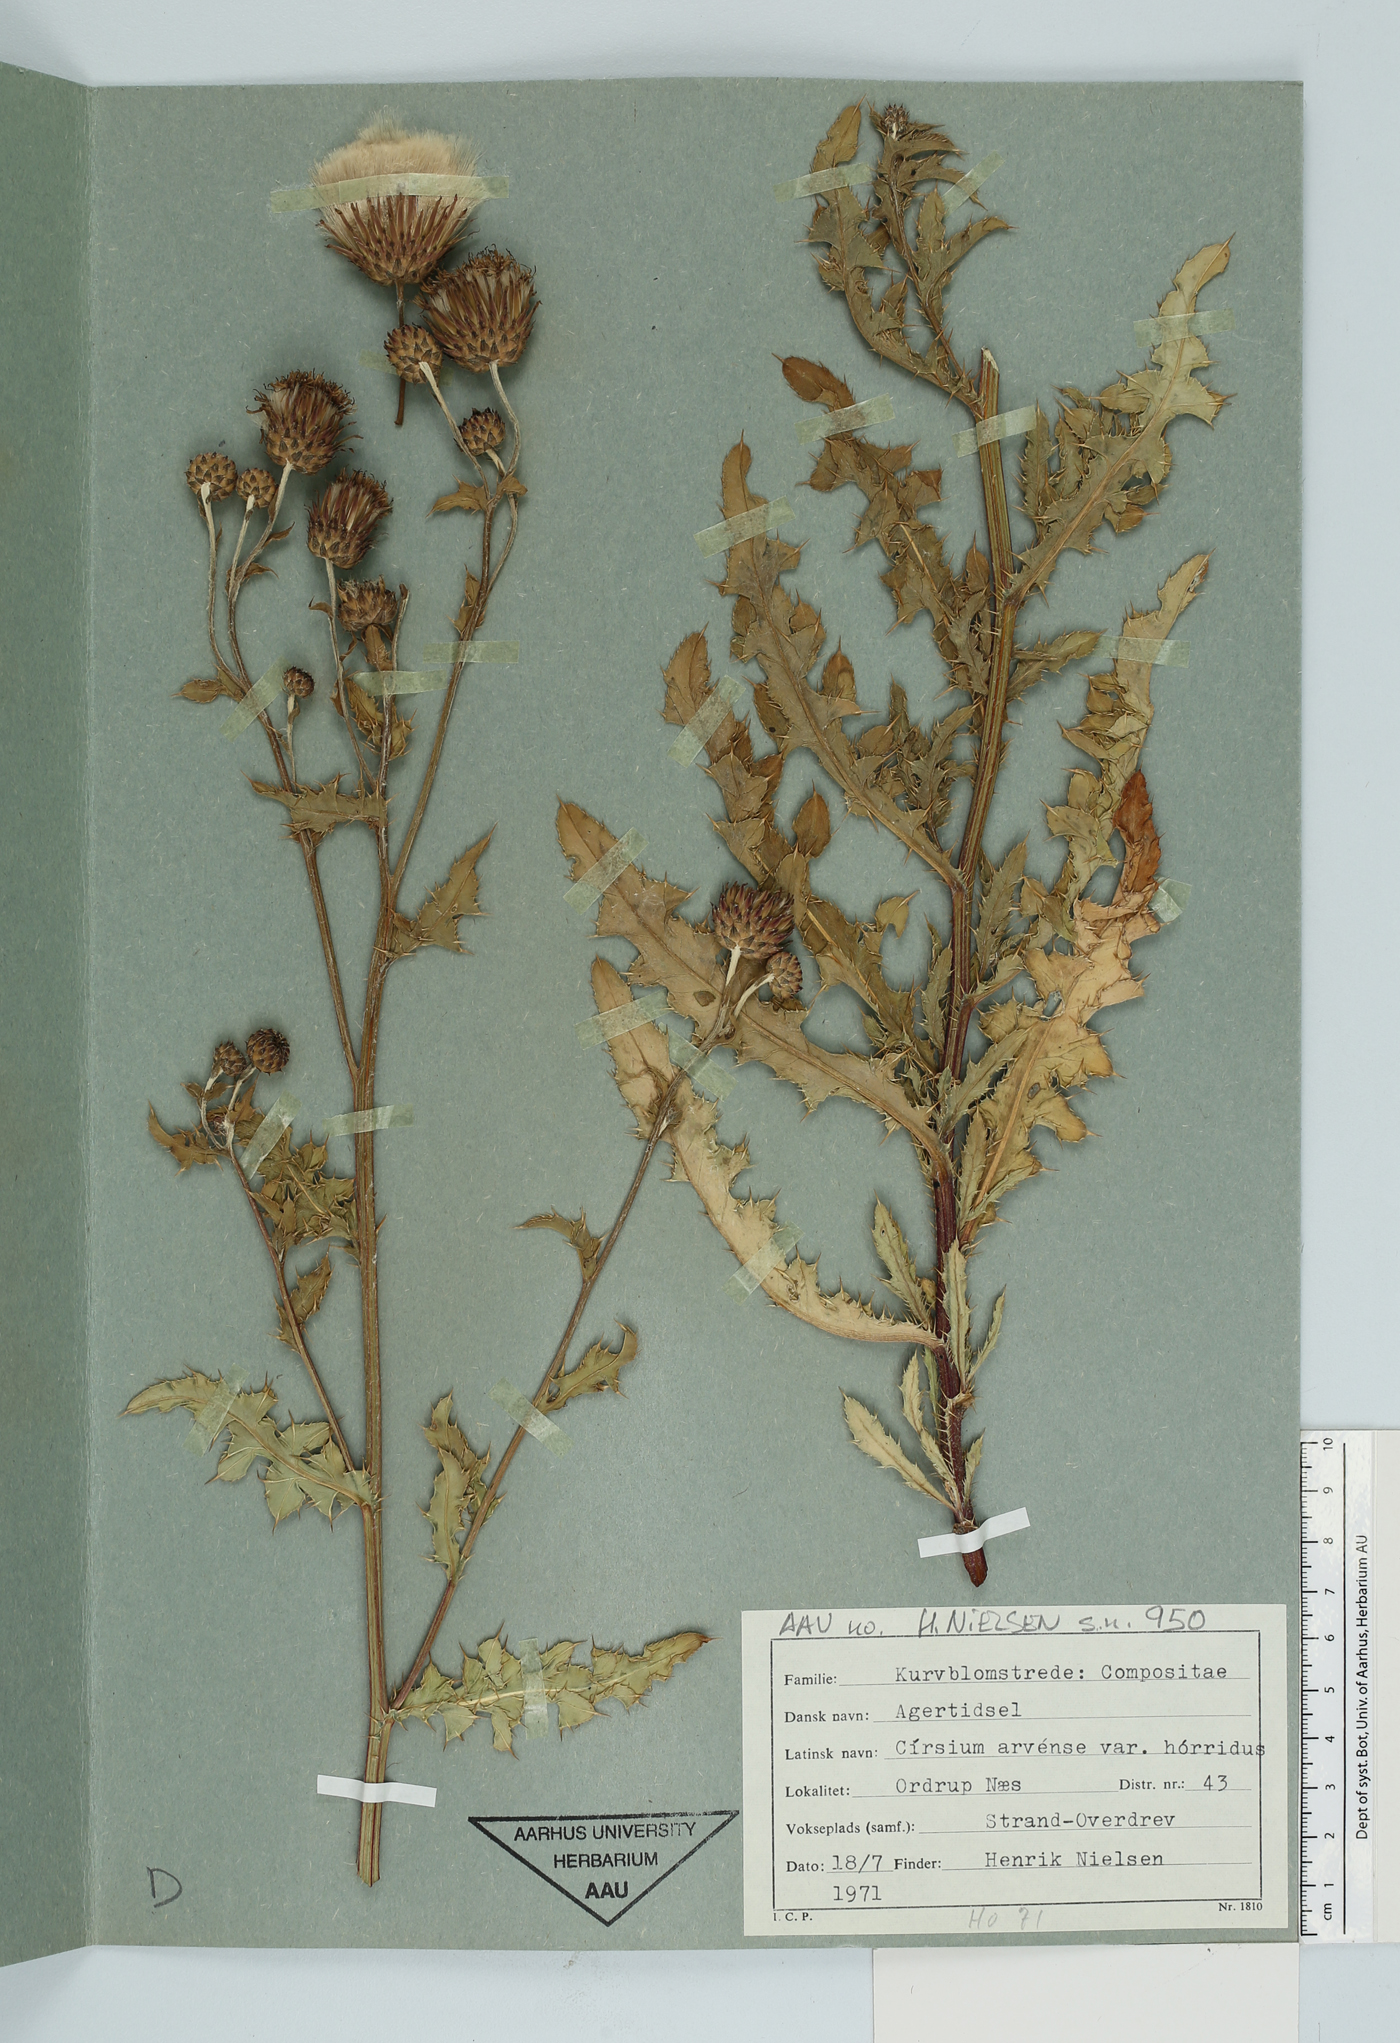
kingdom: Plantae
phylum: Tracheophyta
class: Magnoliopsida
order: Asterales
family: Asteraceae
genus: Cirsium
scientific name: Cirsium arvense
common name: Creeping thistle
